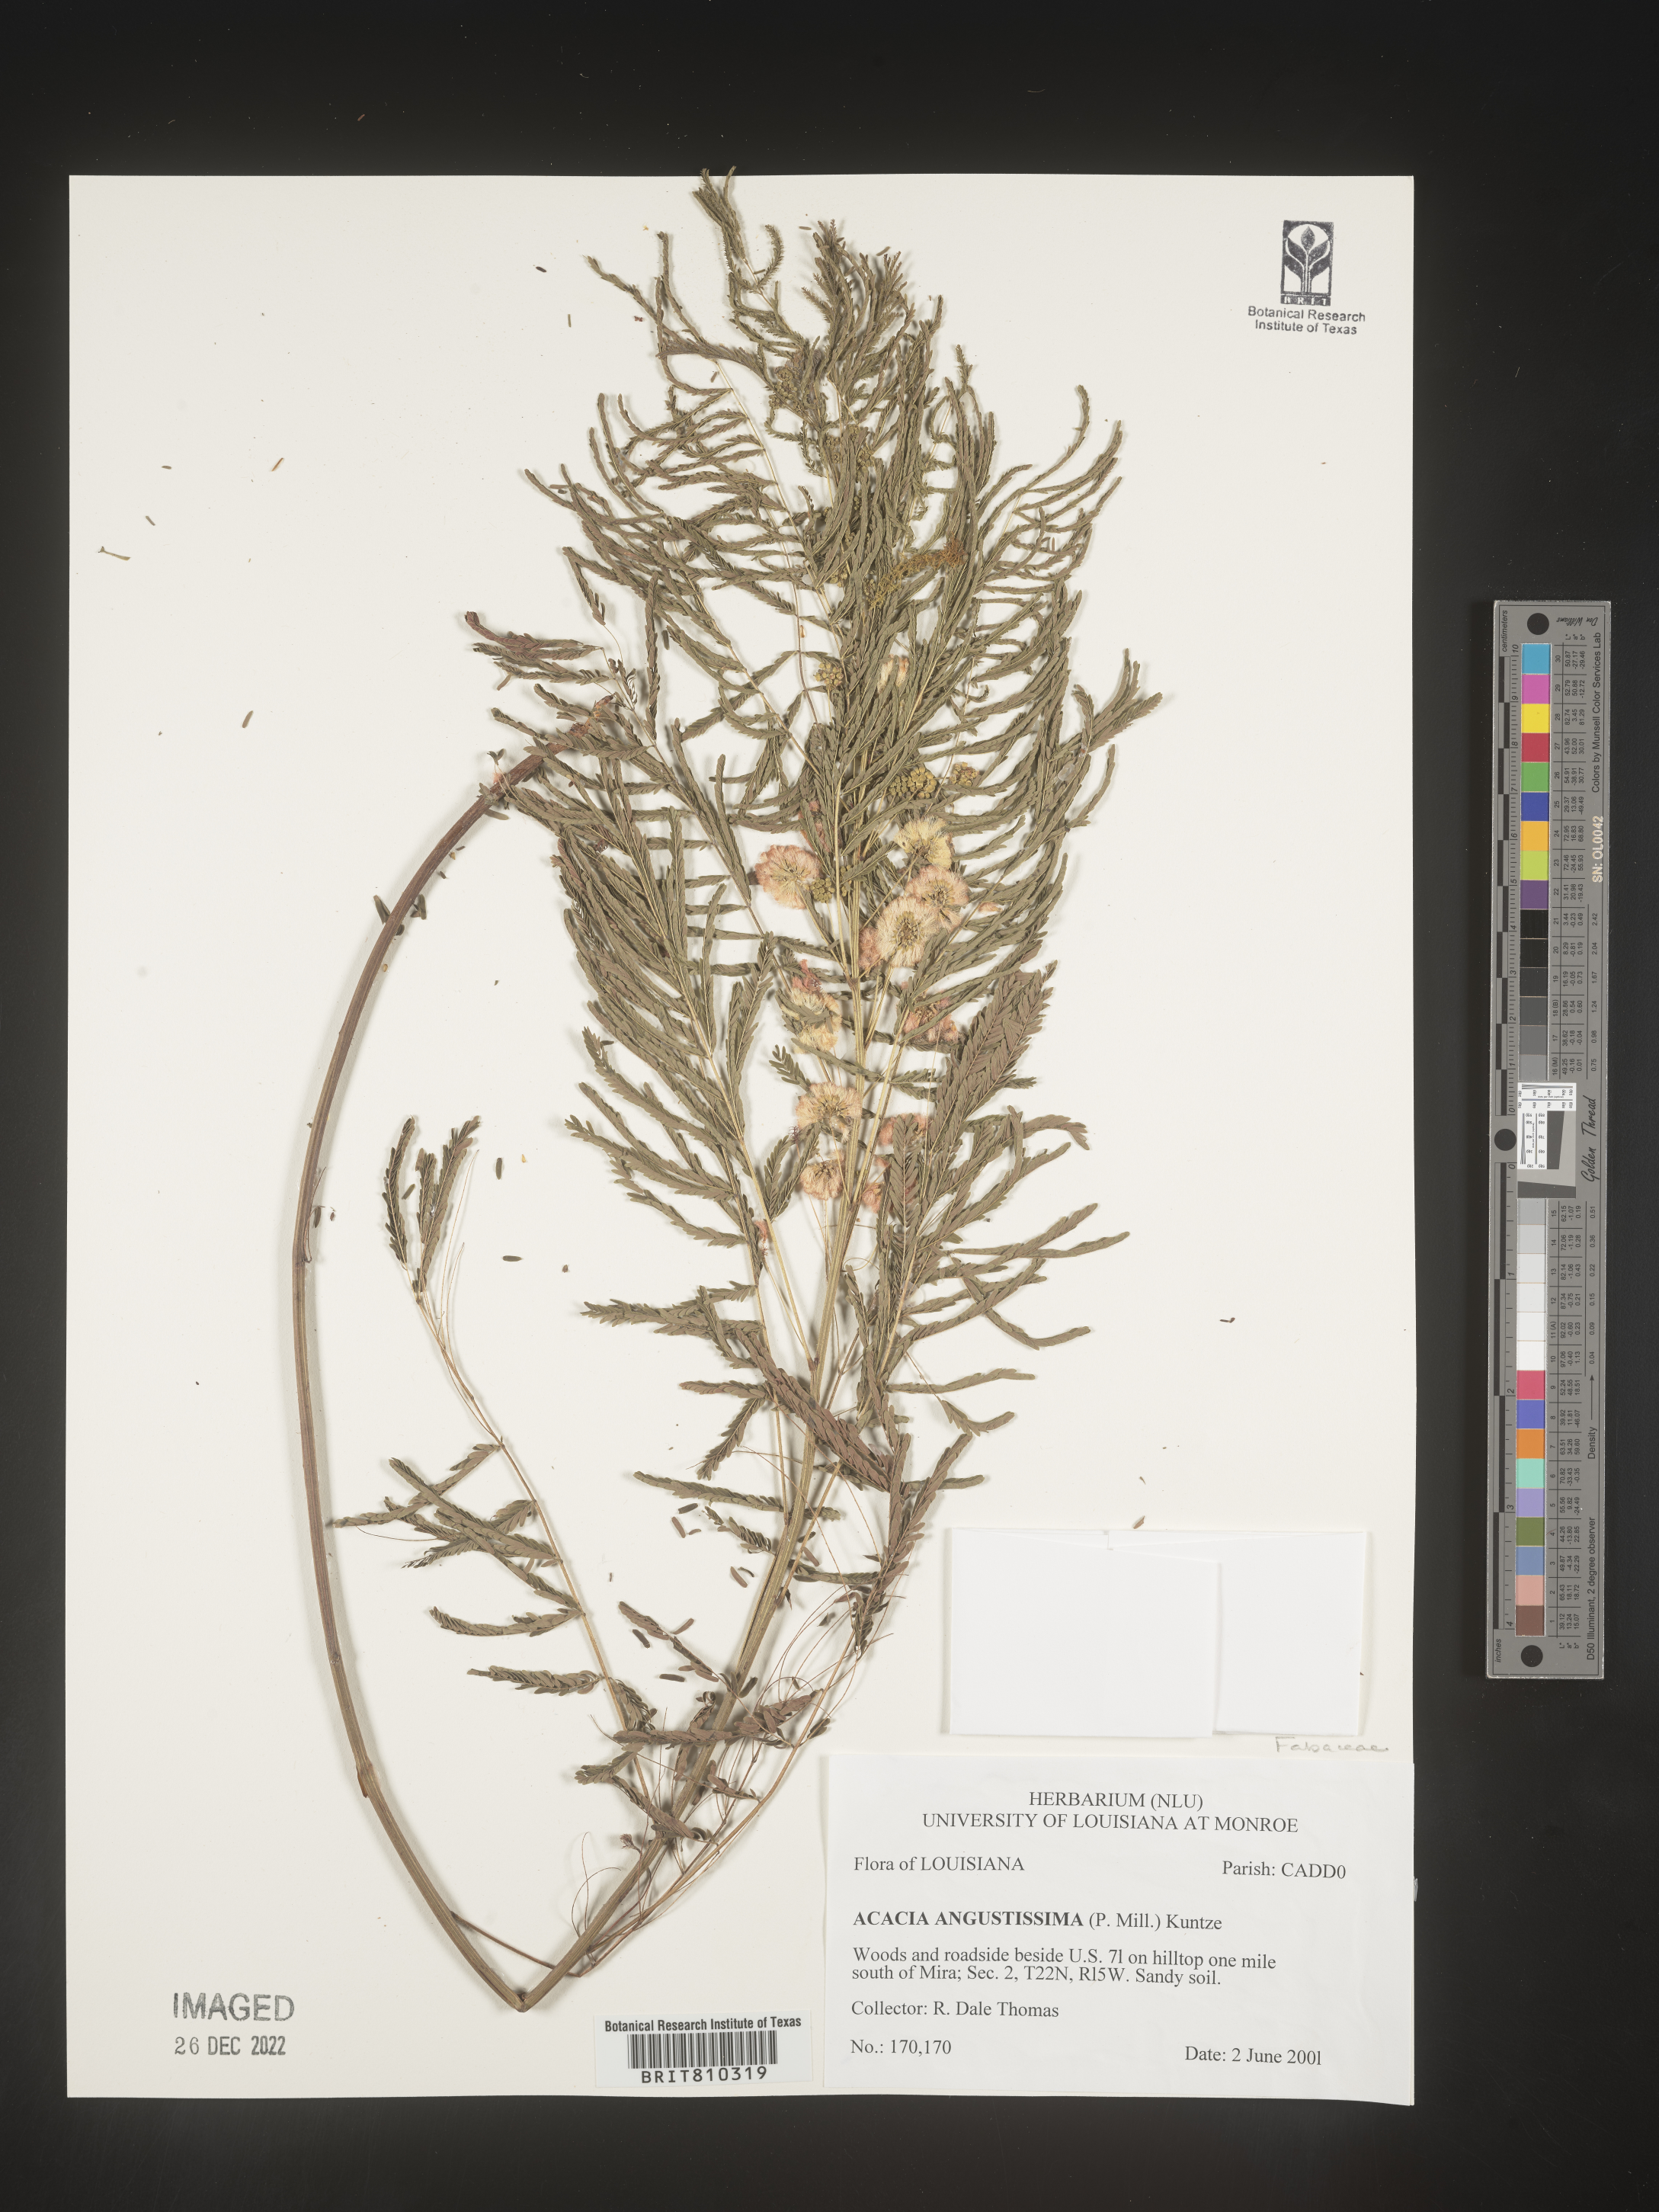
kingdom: Plantae
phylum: Tracheophyta
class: Magnoliopsida
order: Fabales
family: Fabaceae
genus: Acaciella
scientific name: Acaciella angustissima
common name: Prairie acacia
